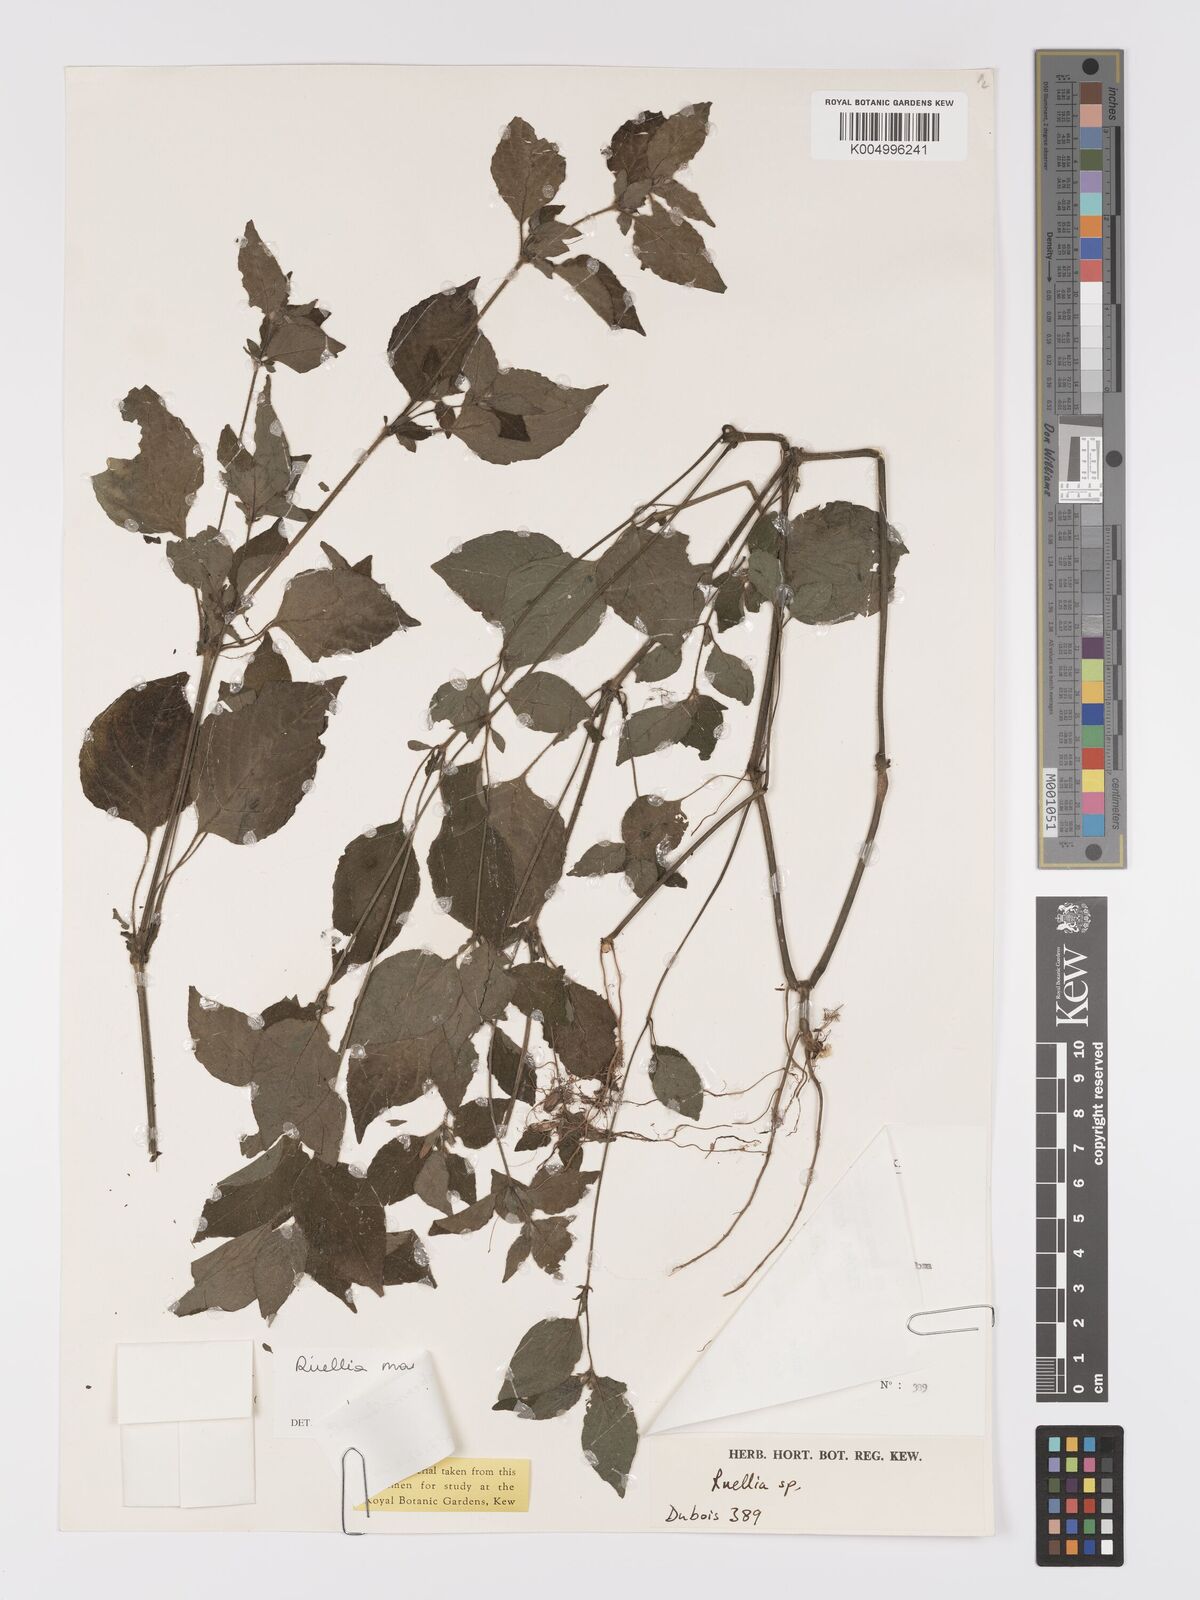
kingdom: Plantae
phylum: Tracheophyta
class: Magnoliopsida
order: Lamiales
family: Acanthaceae
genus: Ruellia
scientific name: Ruellia
